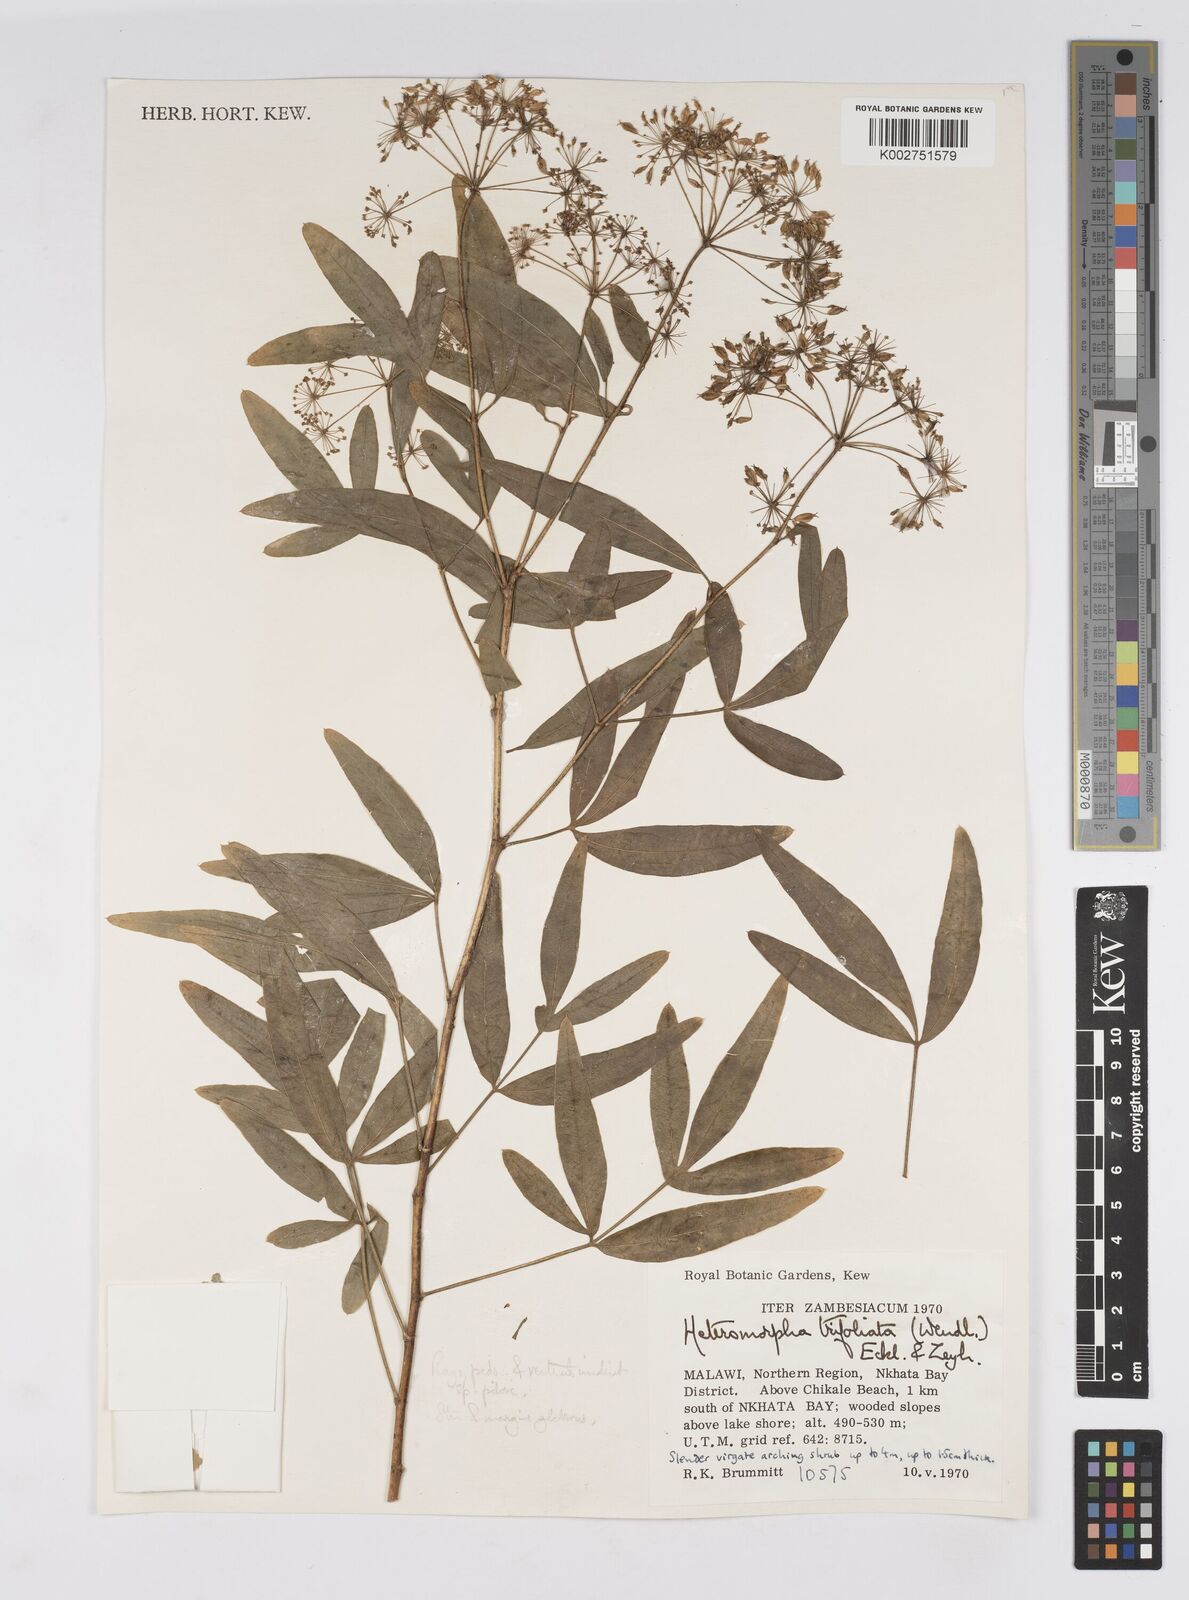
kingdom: Plantae
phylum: Tracheophyta
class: Magnoliopsida
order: Apiales
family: Apiaceae
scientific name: Apiaceae
